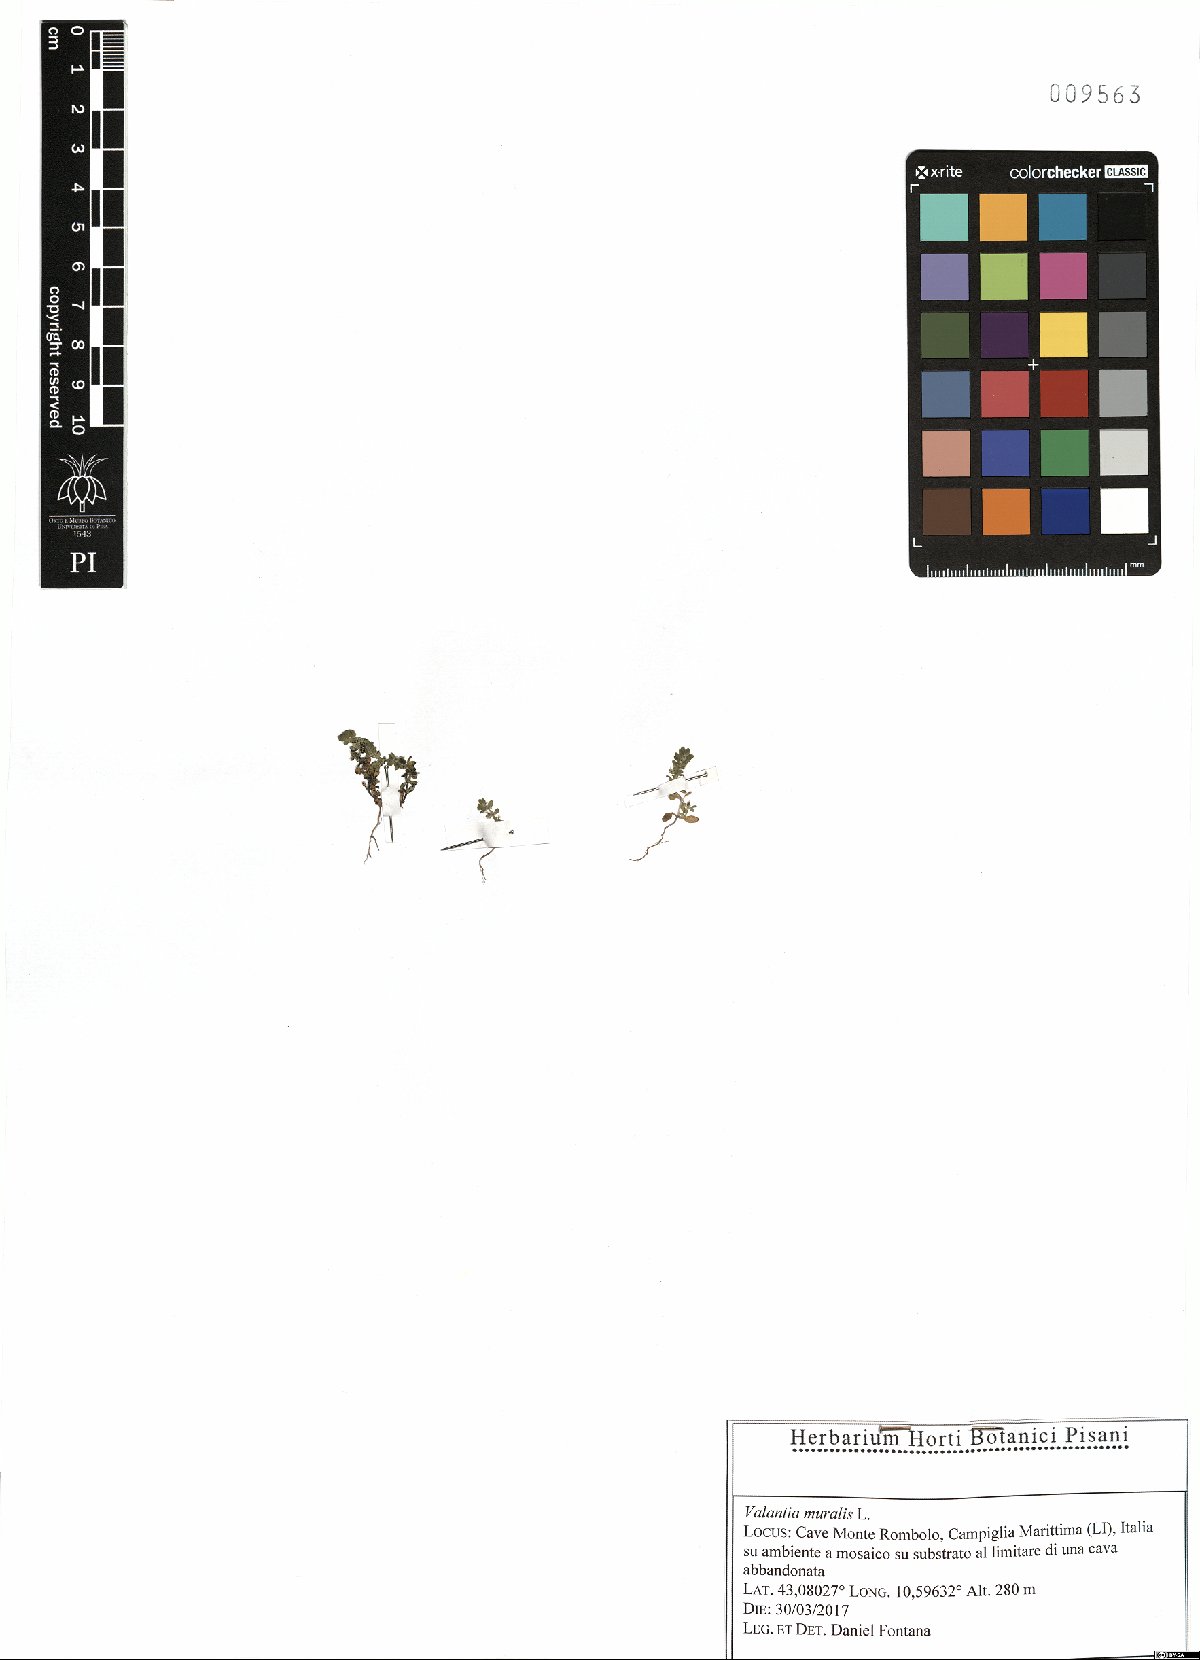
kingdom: Plantae
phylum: Tracheophyta
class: Magnoliopsida
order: Gentianales
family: Rubiaceae
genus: Valantia
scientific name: Valantia muralis
